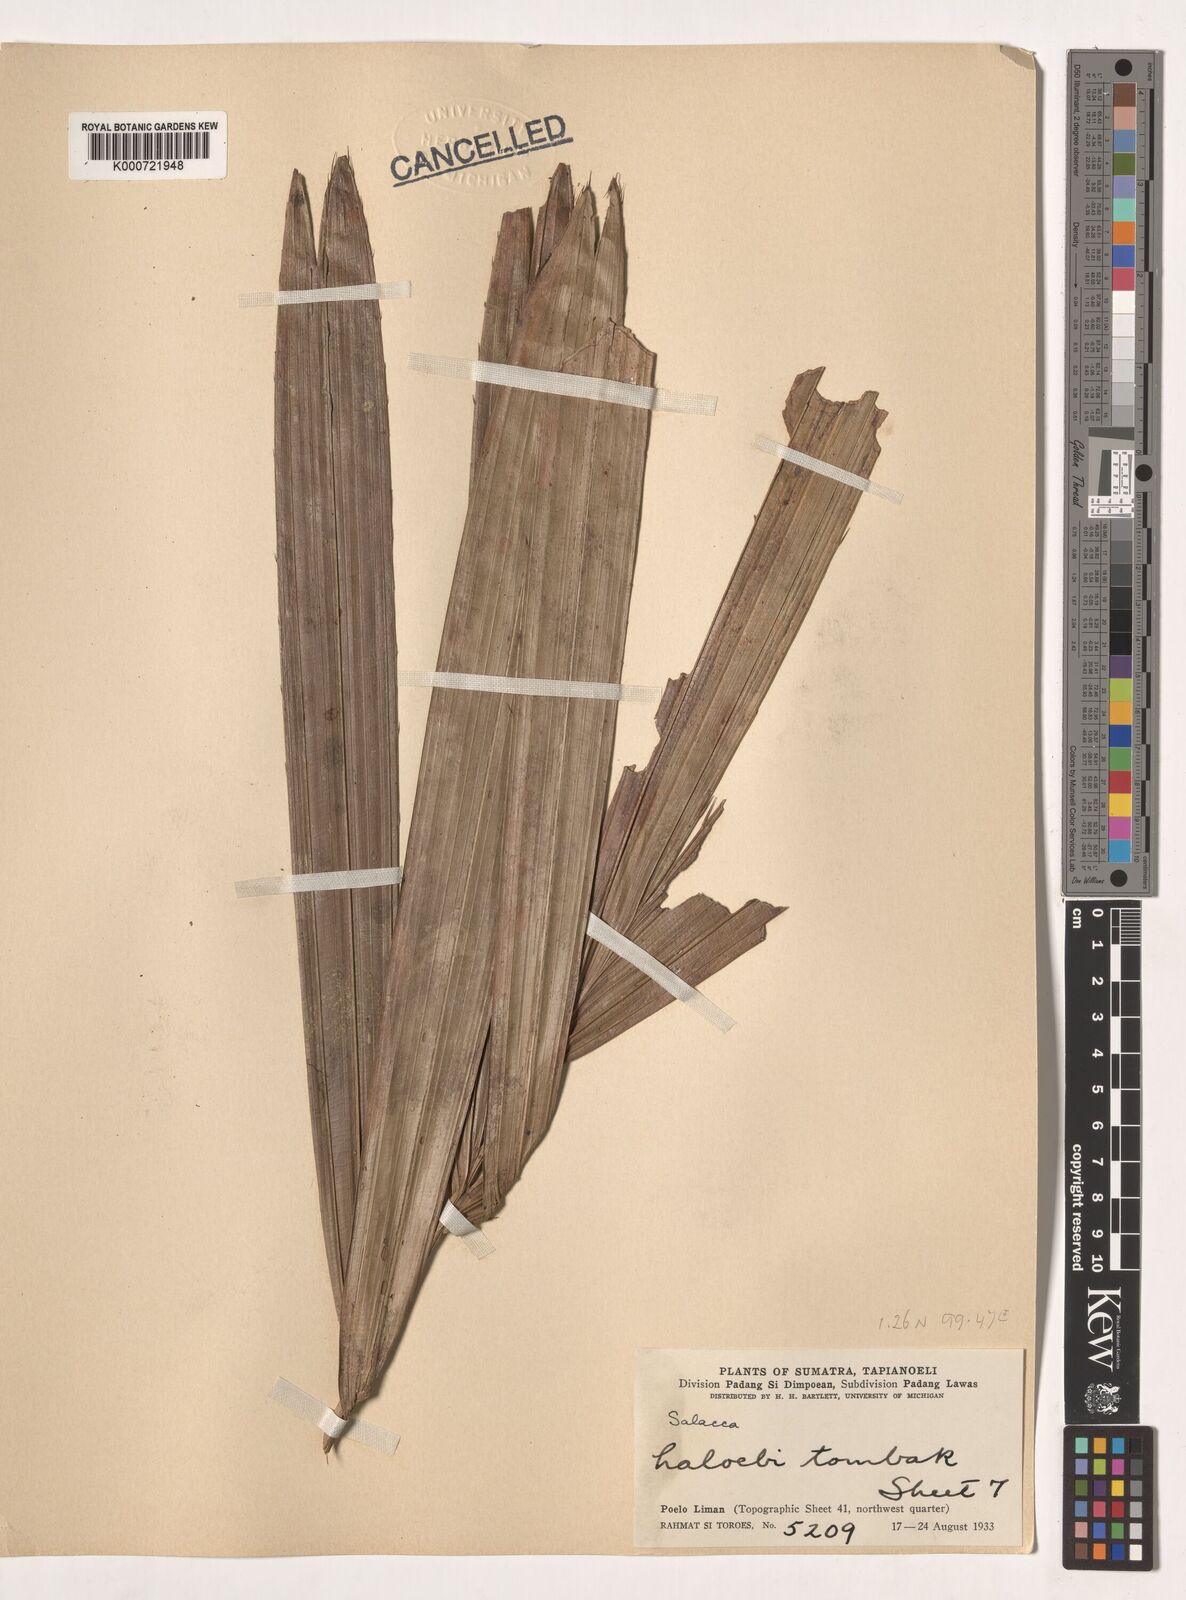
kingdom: Plantae
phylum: Tracheophyta
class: Liliopsida
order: Arecales
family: Arecaceae
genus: Eleiodoxa
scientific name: Eleiodoxa conferta
